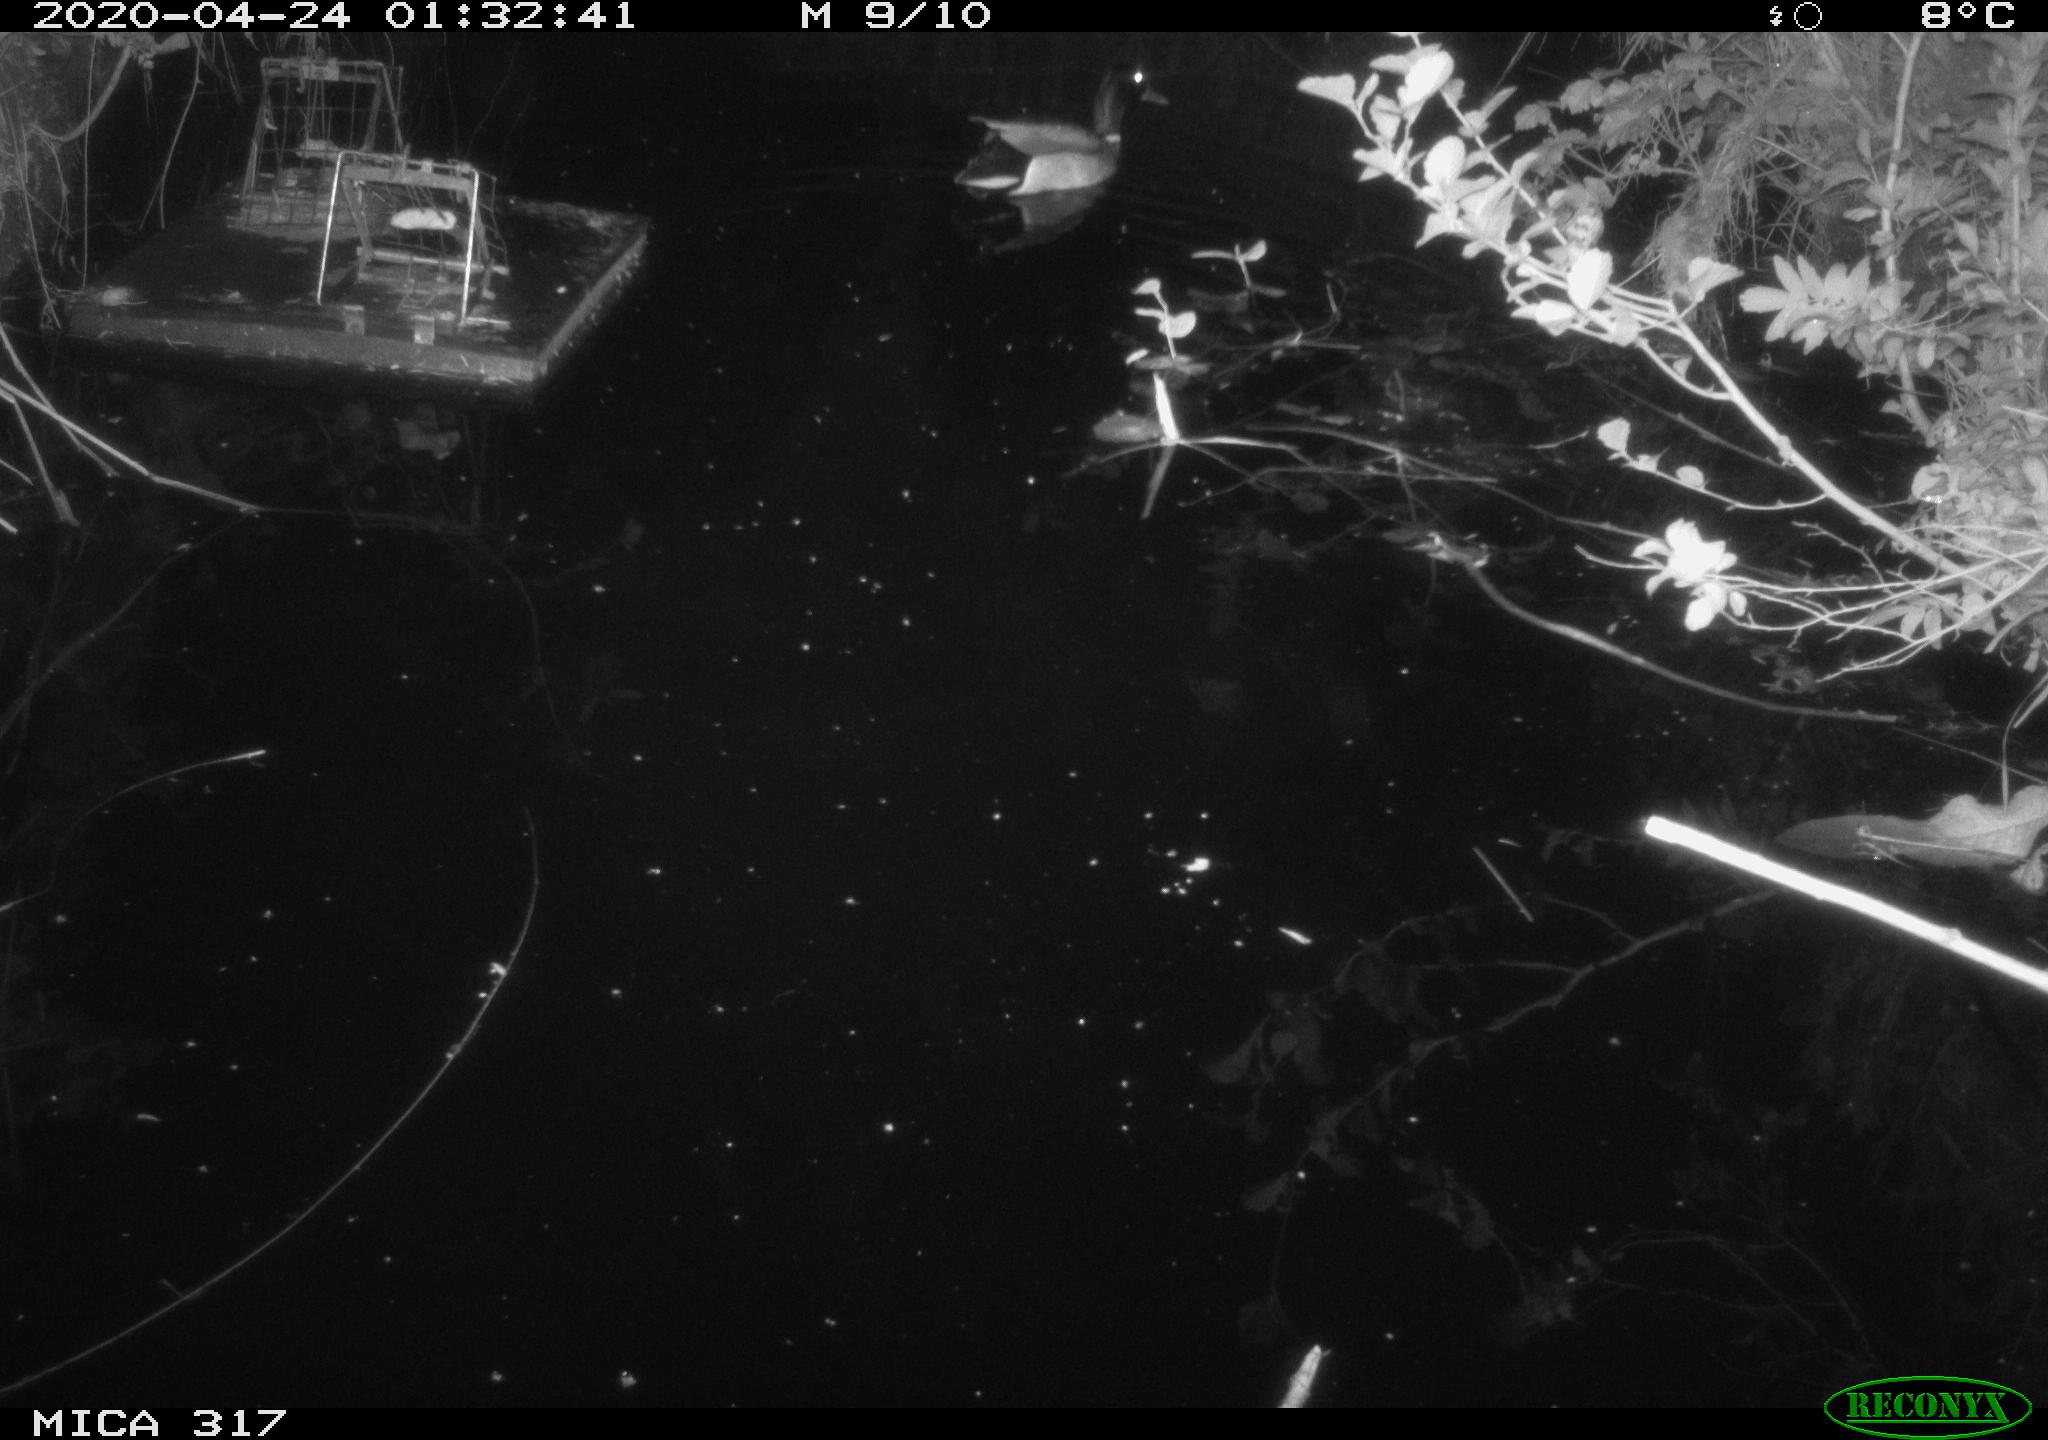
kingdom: Animalia
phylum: Chordata
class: Aves
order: Anseriformes
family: Anatidae
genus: Anas
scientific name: Anas platyrhynchos
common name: Mallard
